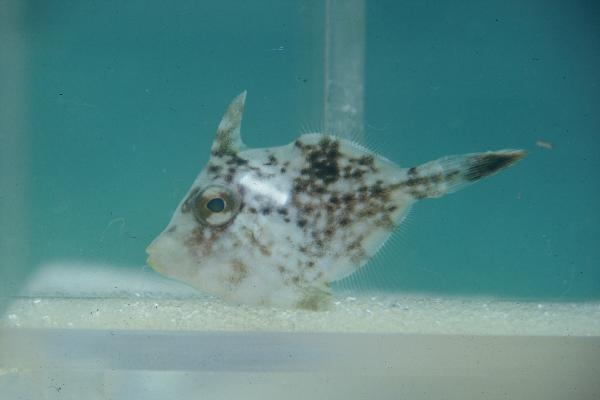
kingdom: Animalia
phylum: Chordata
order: Tetraodontiformes
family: Monacanthidae
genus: Stephanolepis
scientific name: Stephanolepis auratus
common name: Porky
